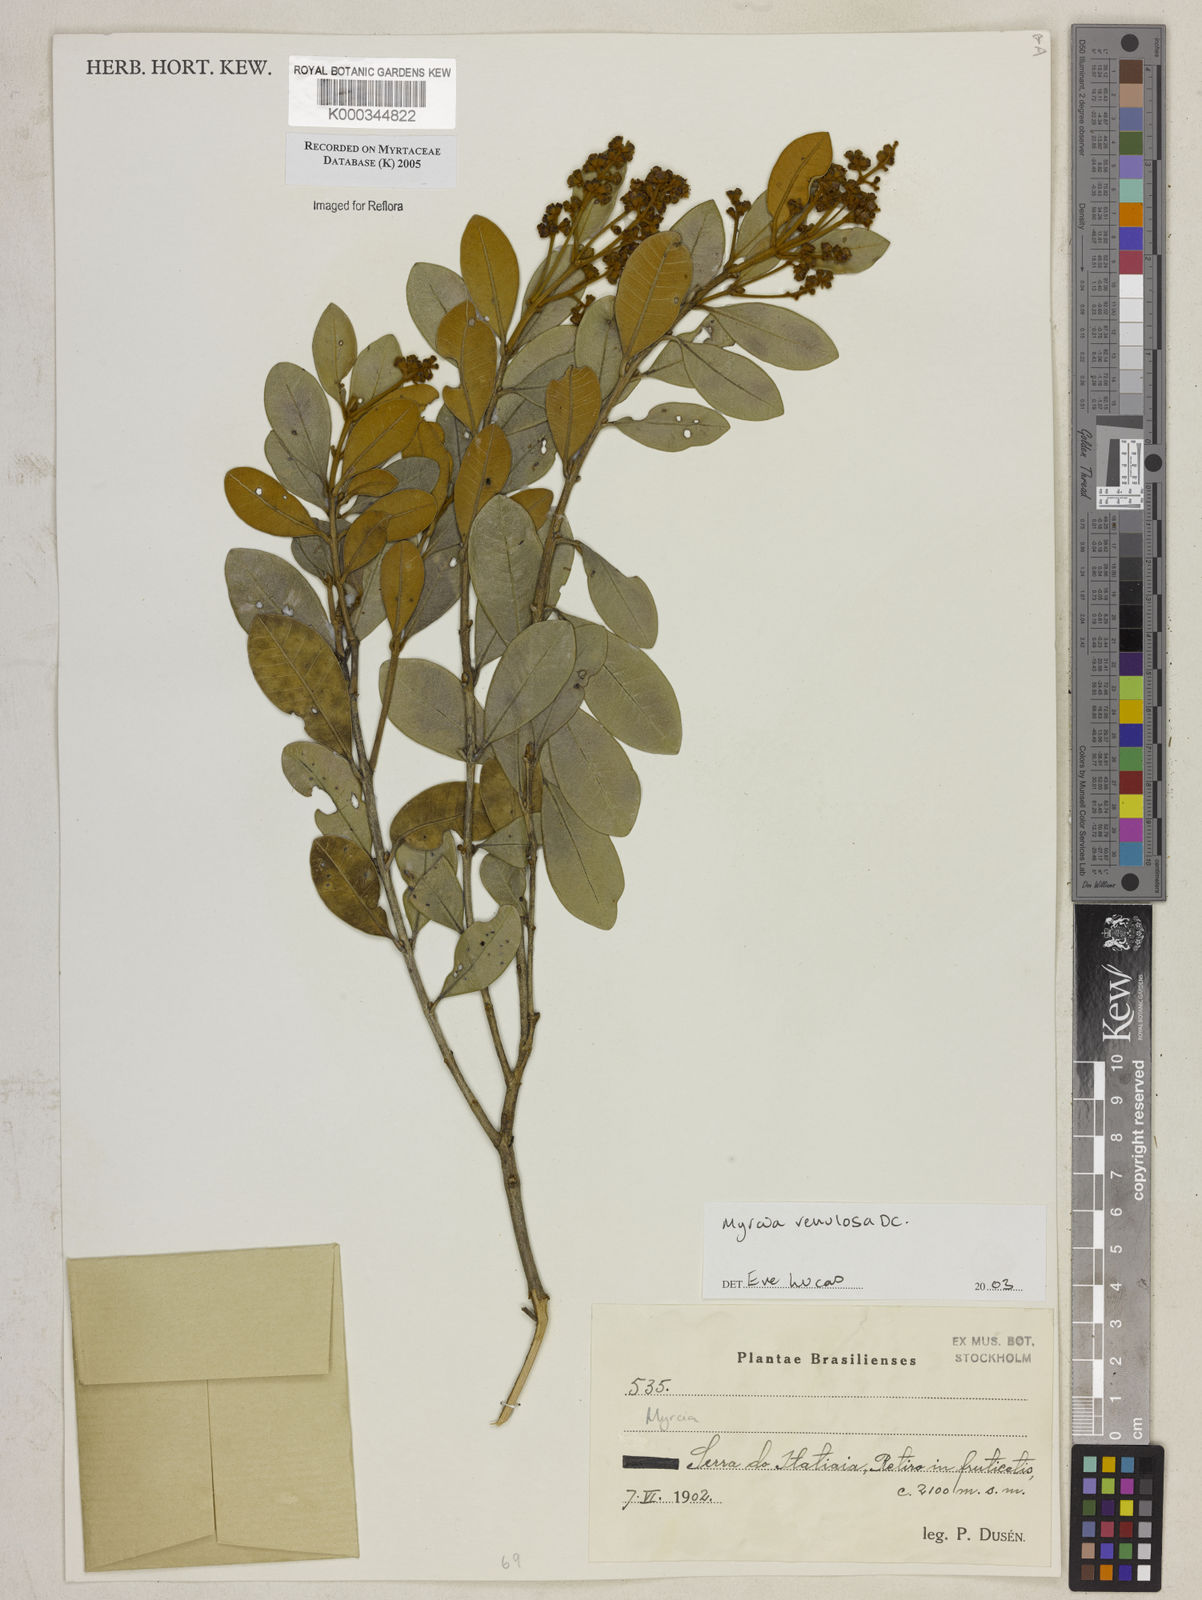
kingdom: Plantae
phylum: Tracheophyta
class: Magnoliopsida
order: Myrtales
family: Myrtaceae
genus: Myrcia
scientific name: Myrcia venulosa
